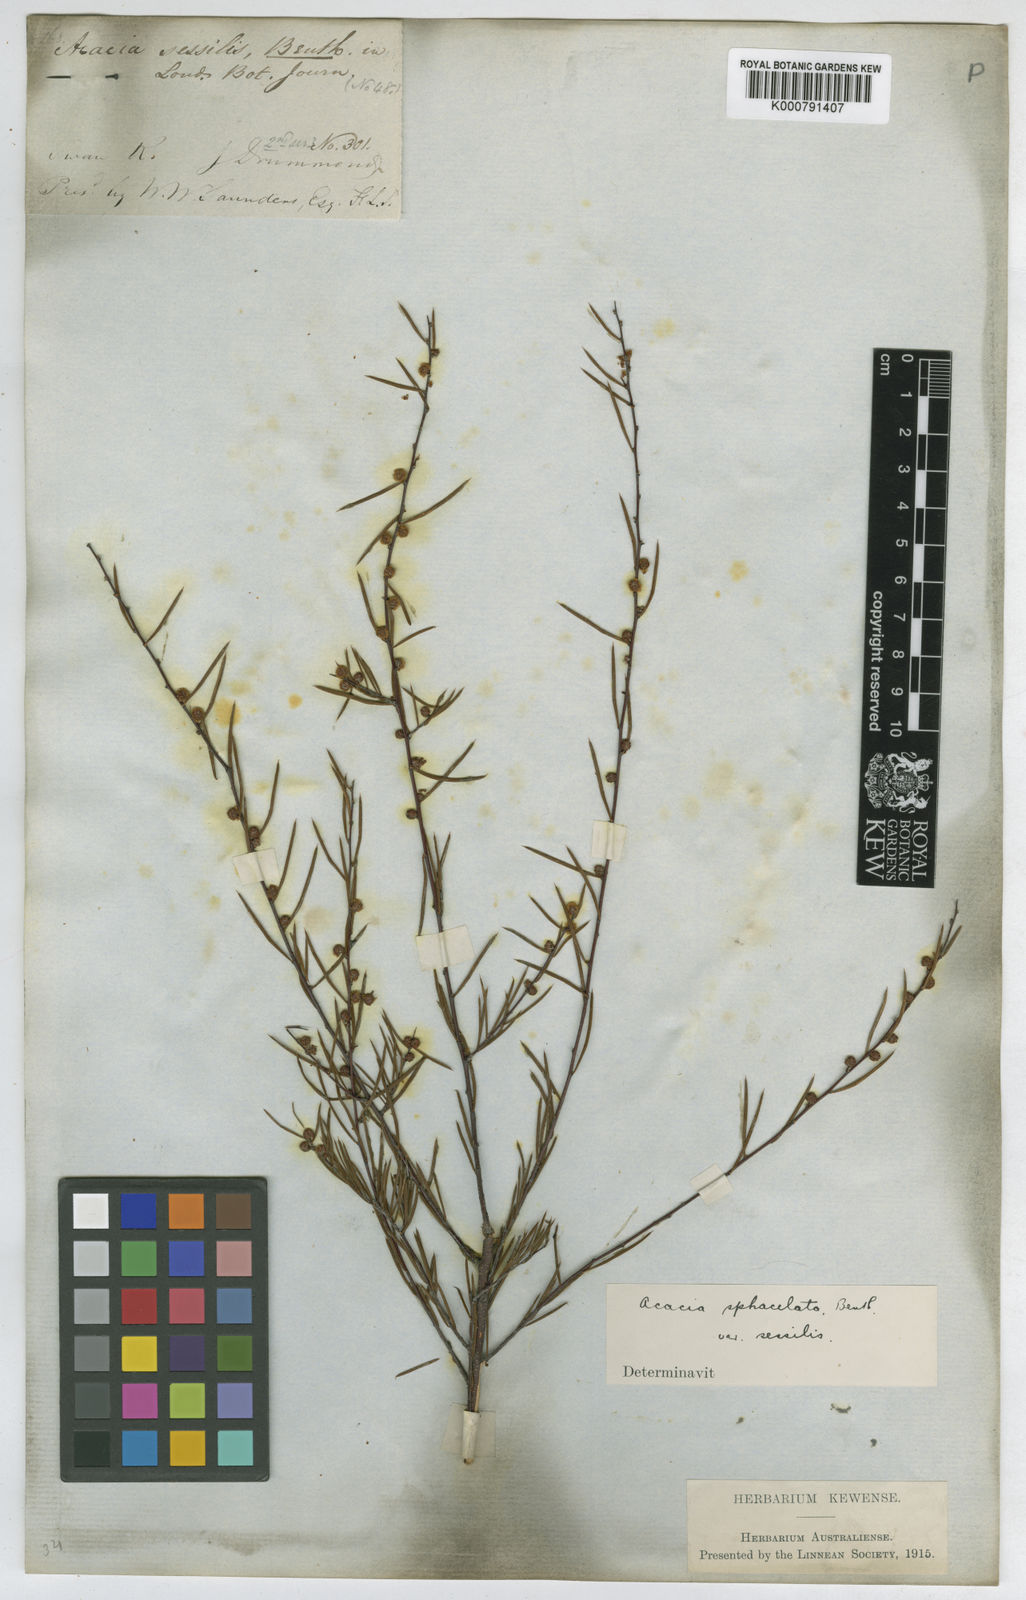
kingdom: Plantae
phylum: Tracheophyta
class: Magnoliopsida
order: Fabales
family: Fabaceae
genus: Acacia
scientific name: Acacia sphacelata
